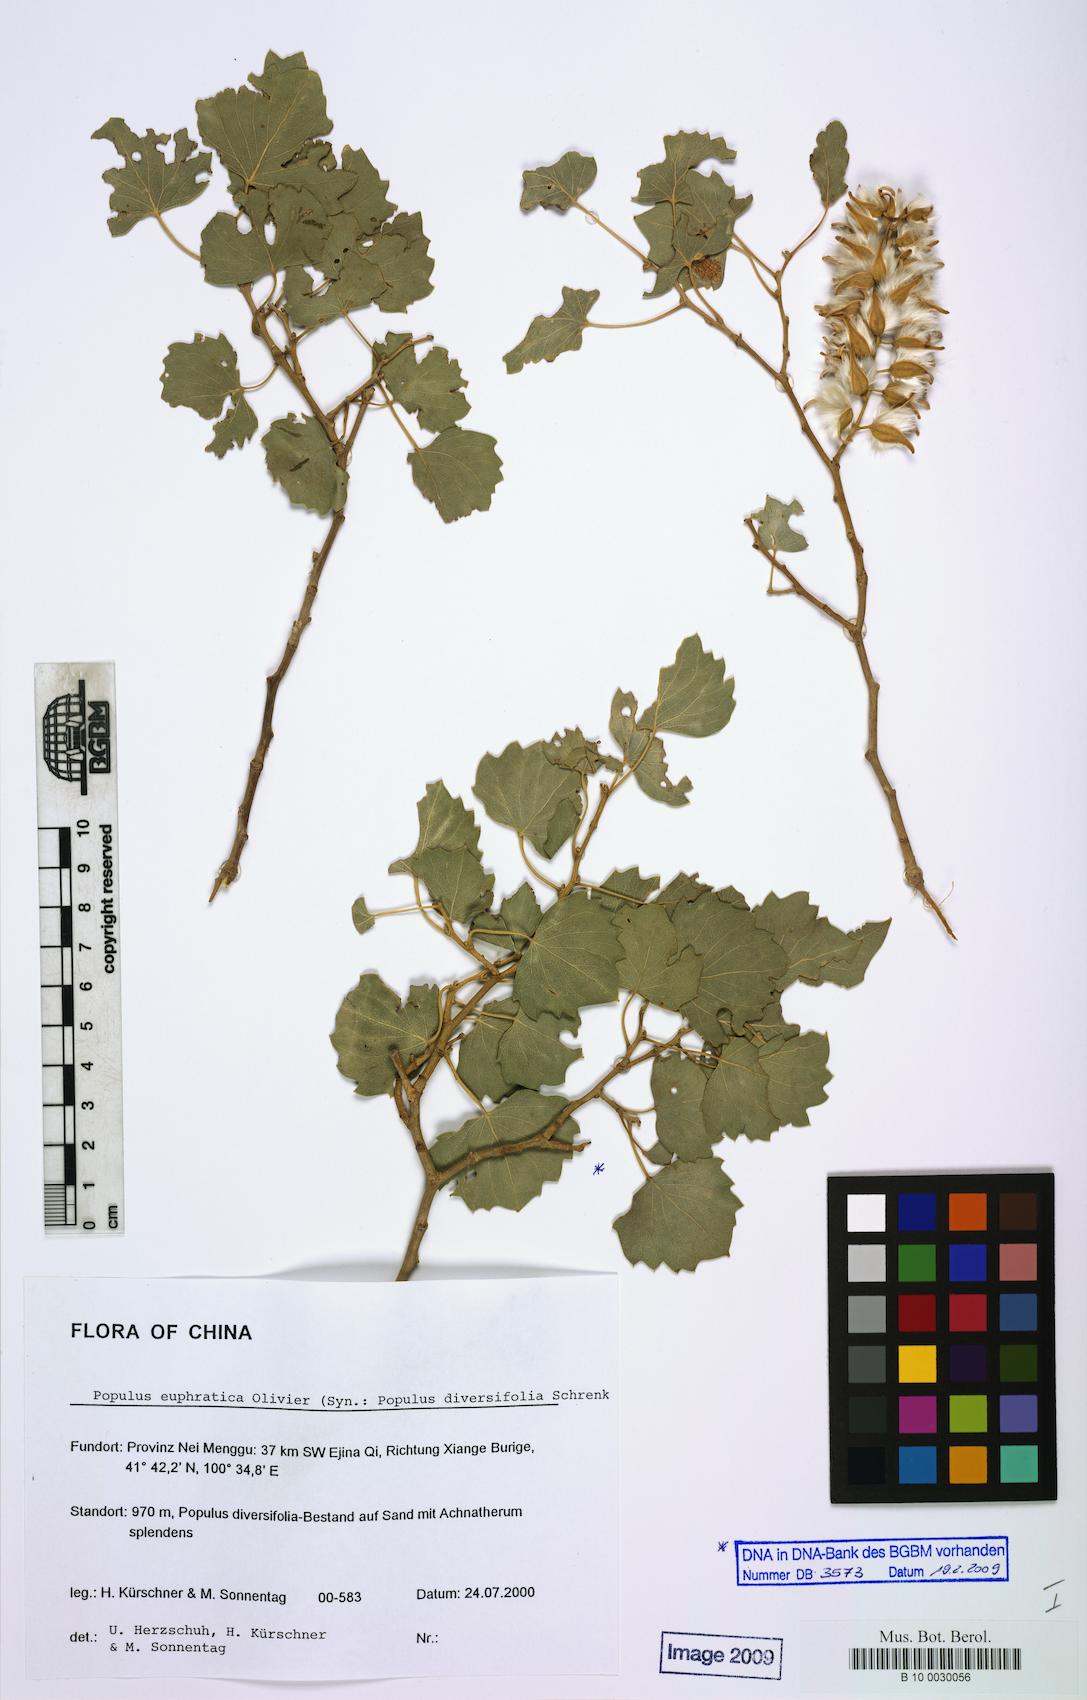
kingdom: Plantae
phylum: Tracheophyta
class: Magnoliopsida
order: Malpighiales
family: Salicaceae
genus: Populus
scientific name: Populus euphratica
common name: Euphrates poplar
